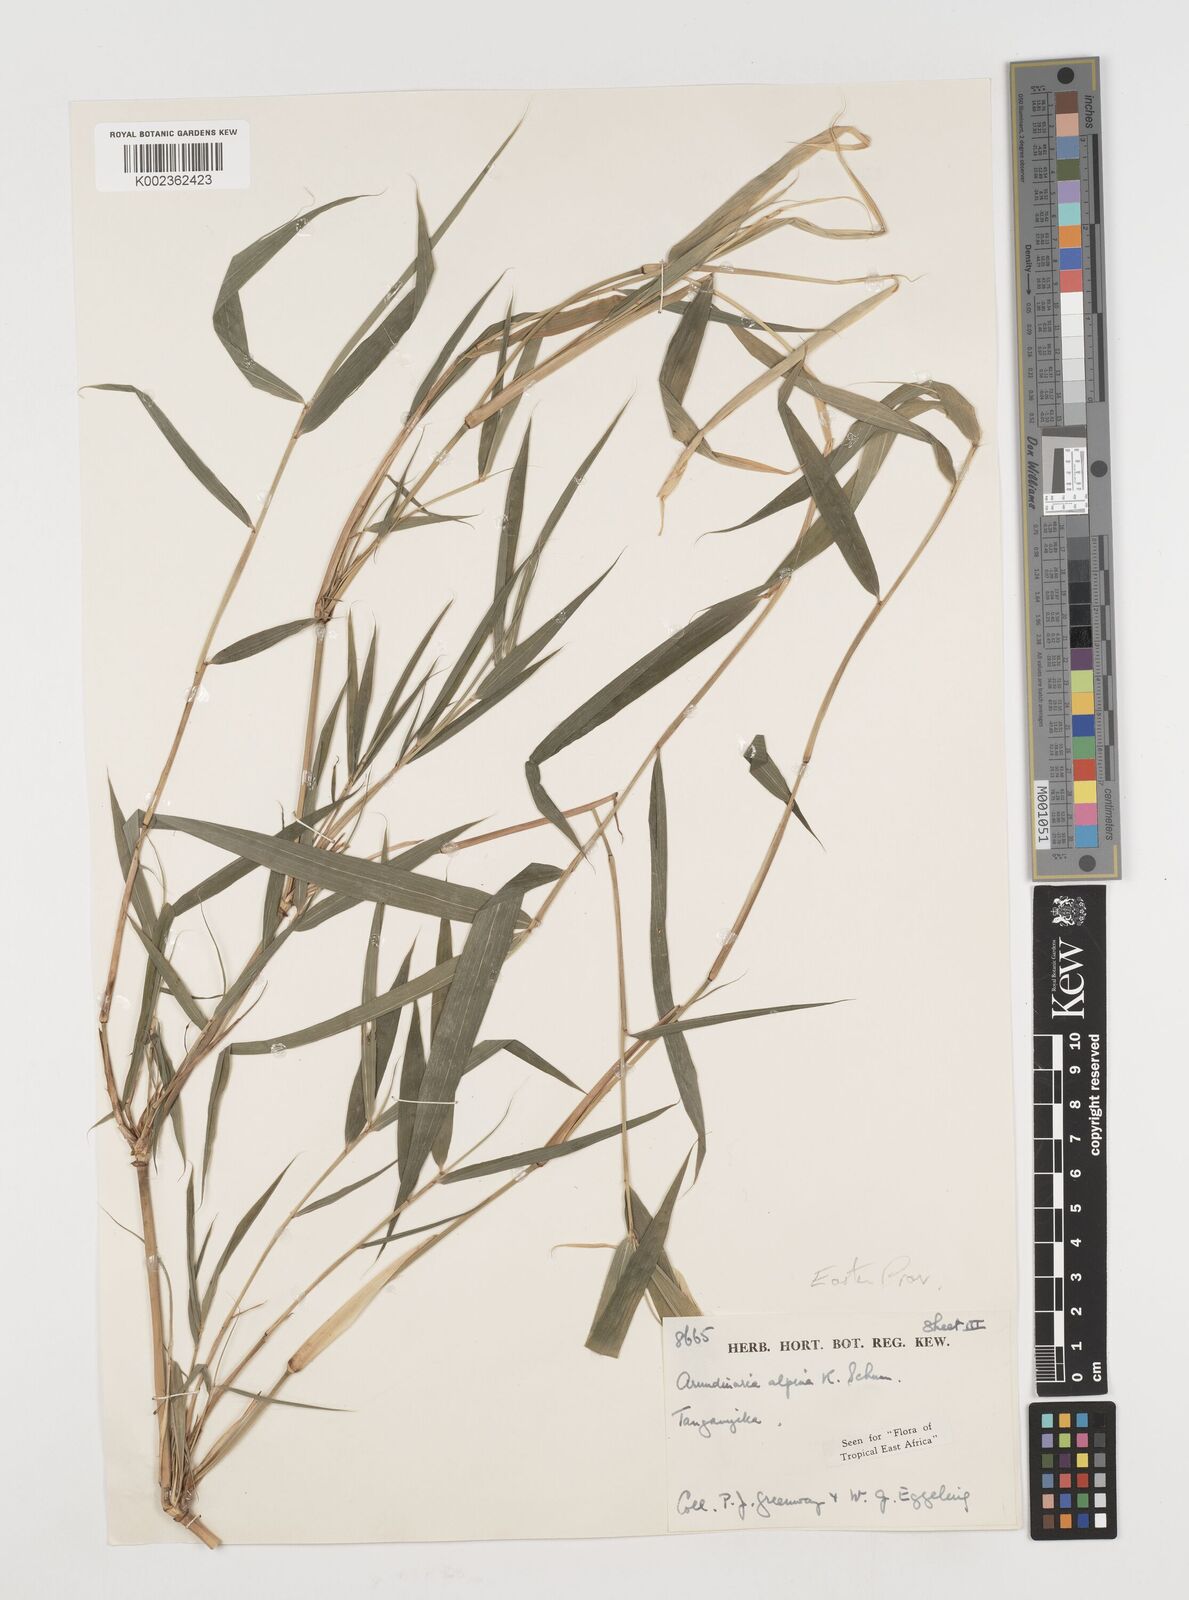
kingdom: Plantae
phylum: Tracheophyta
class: Liliopsida
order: Poales
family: Poaceae
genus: Oldeania
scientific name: Oldeania alpina
